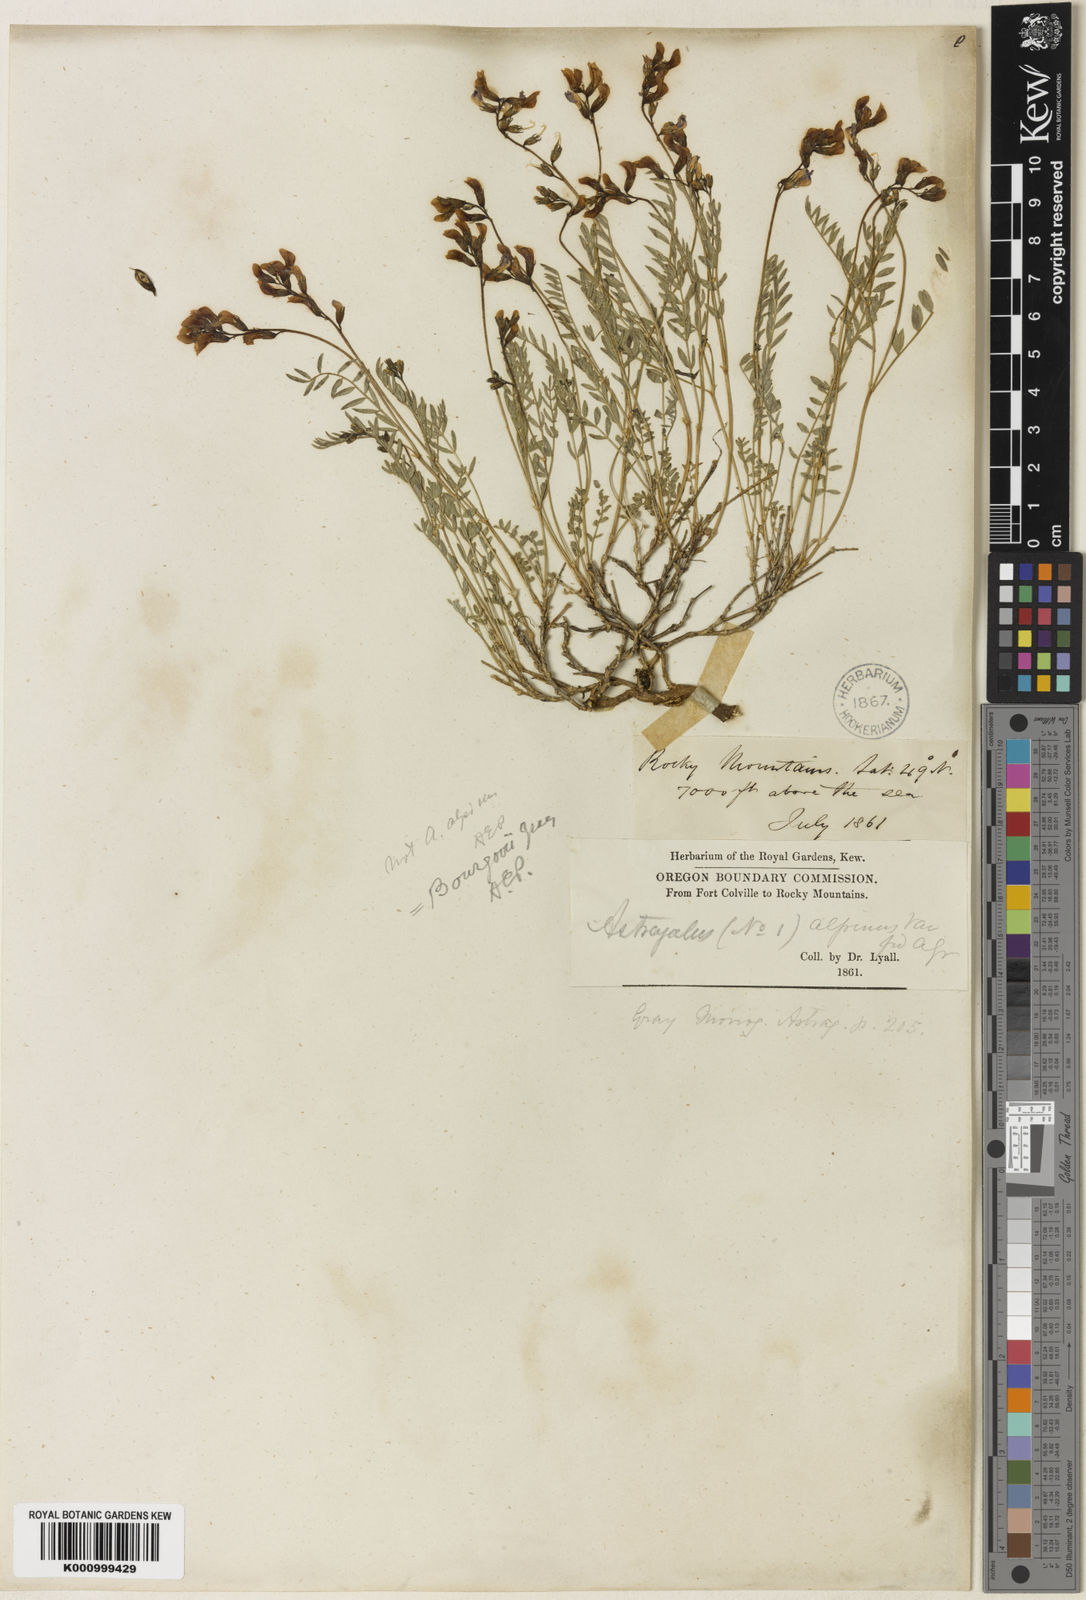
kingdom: Plantae
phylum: Tracheophyta
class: Magnoliopsida
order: Fabales
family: Fabaceae
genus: Astragalus
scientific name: Astragalus bourgovii
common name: Bourgeau's milk-vetch
